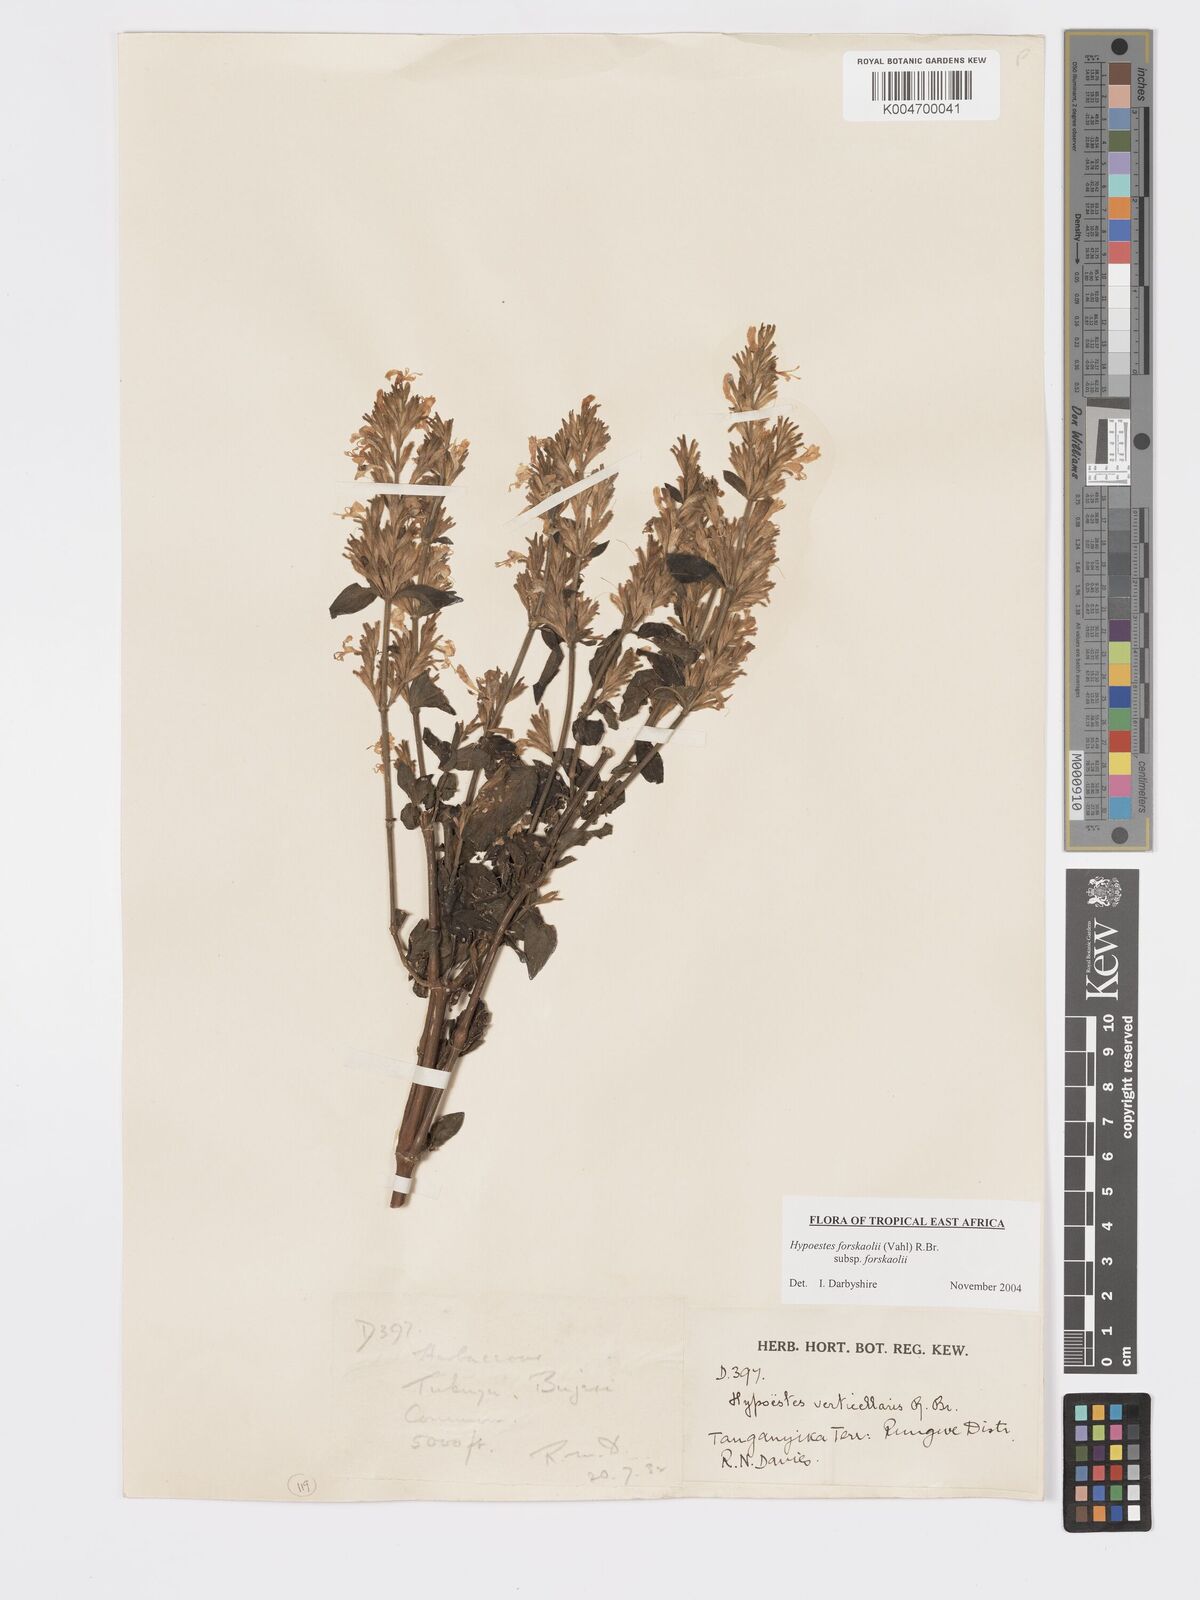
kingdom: Plantae
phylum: Tracheophyta
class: Magnoliopsida
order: Lamiales
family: Acanthaceae
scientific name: Acanthaceae
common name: Acanthaceae
